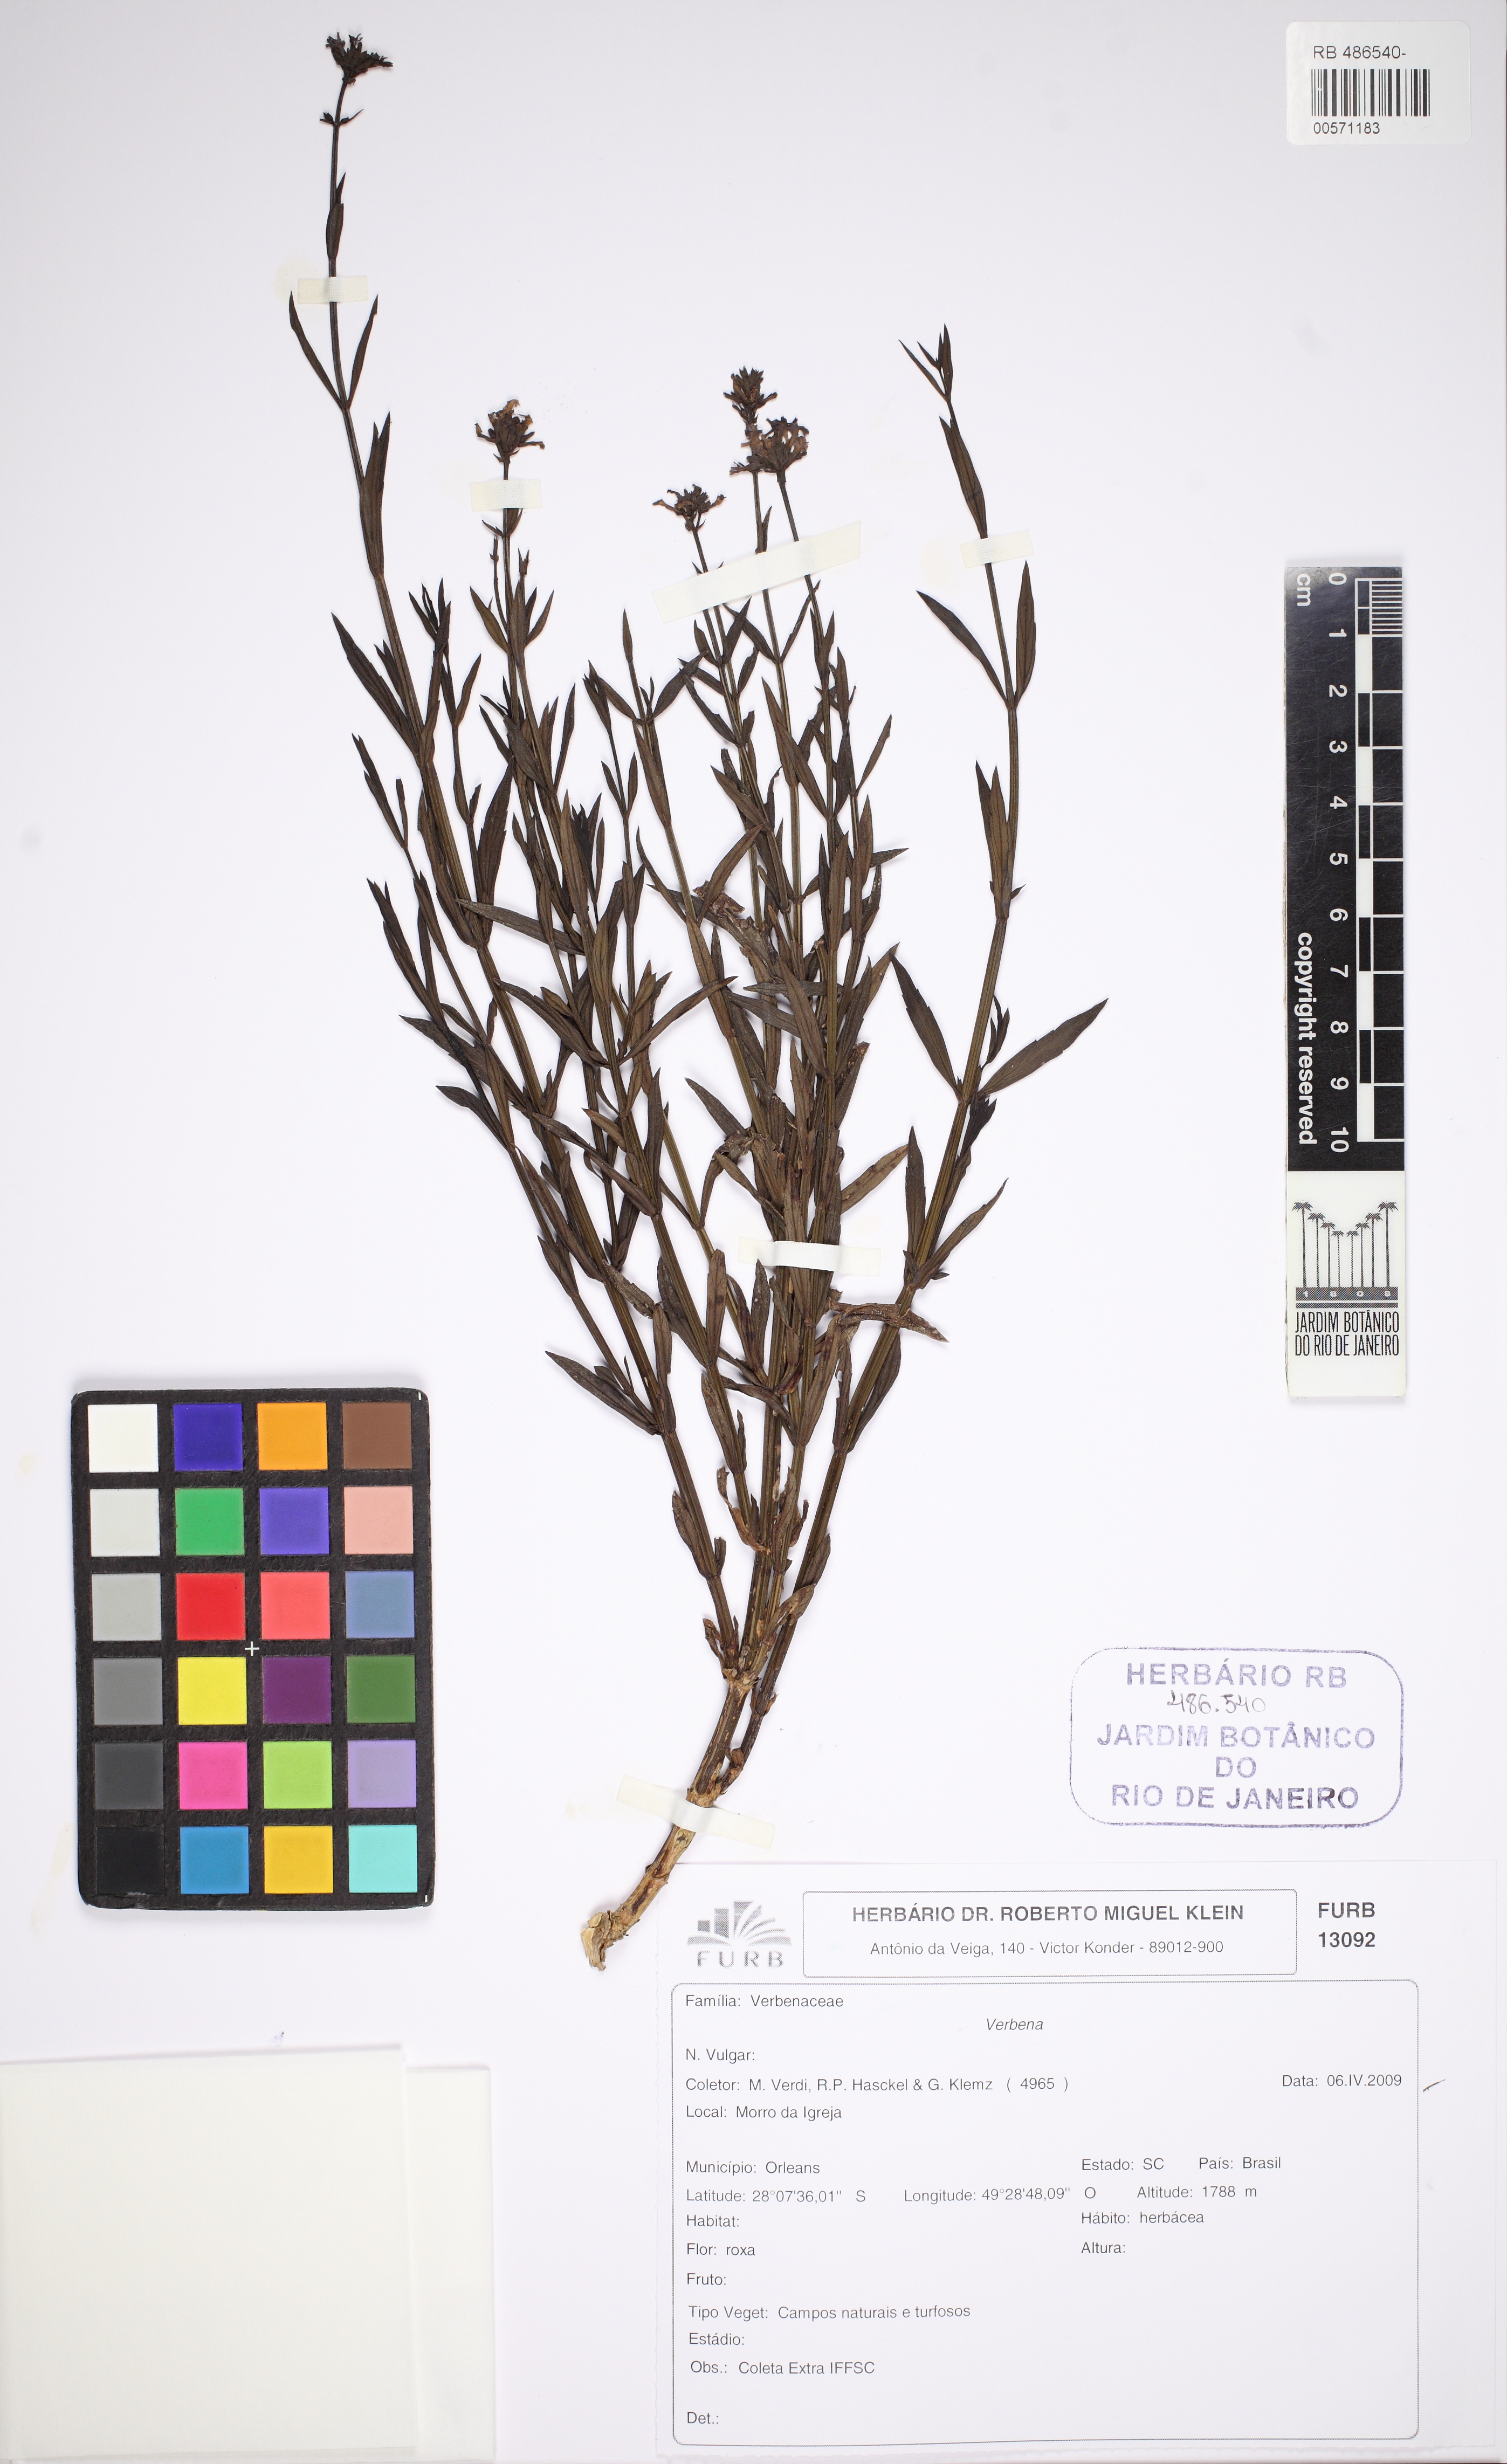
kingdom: Plantae
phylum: Tracheophyta
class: Magnoliopsida
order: Lamiales
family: Verbenaceae
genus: Verbena
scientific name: Verbena
